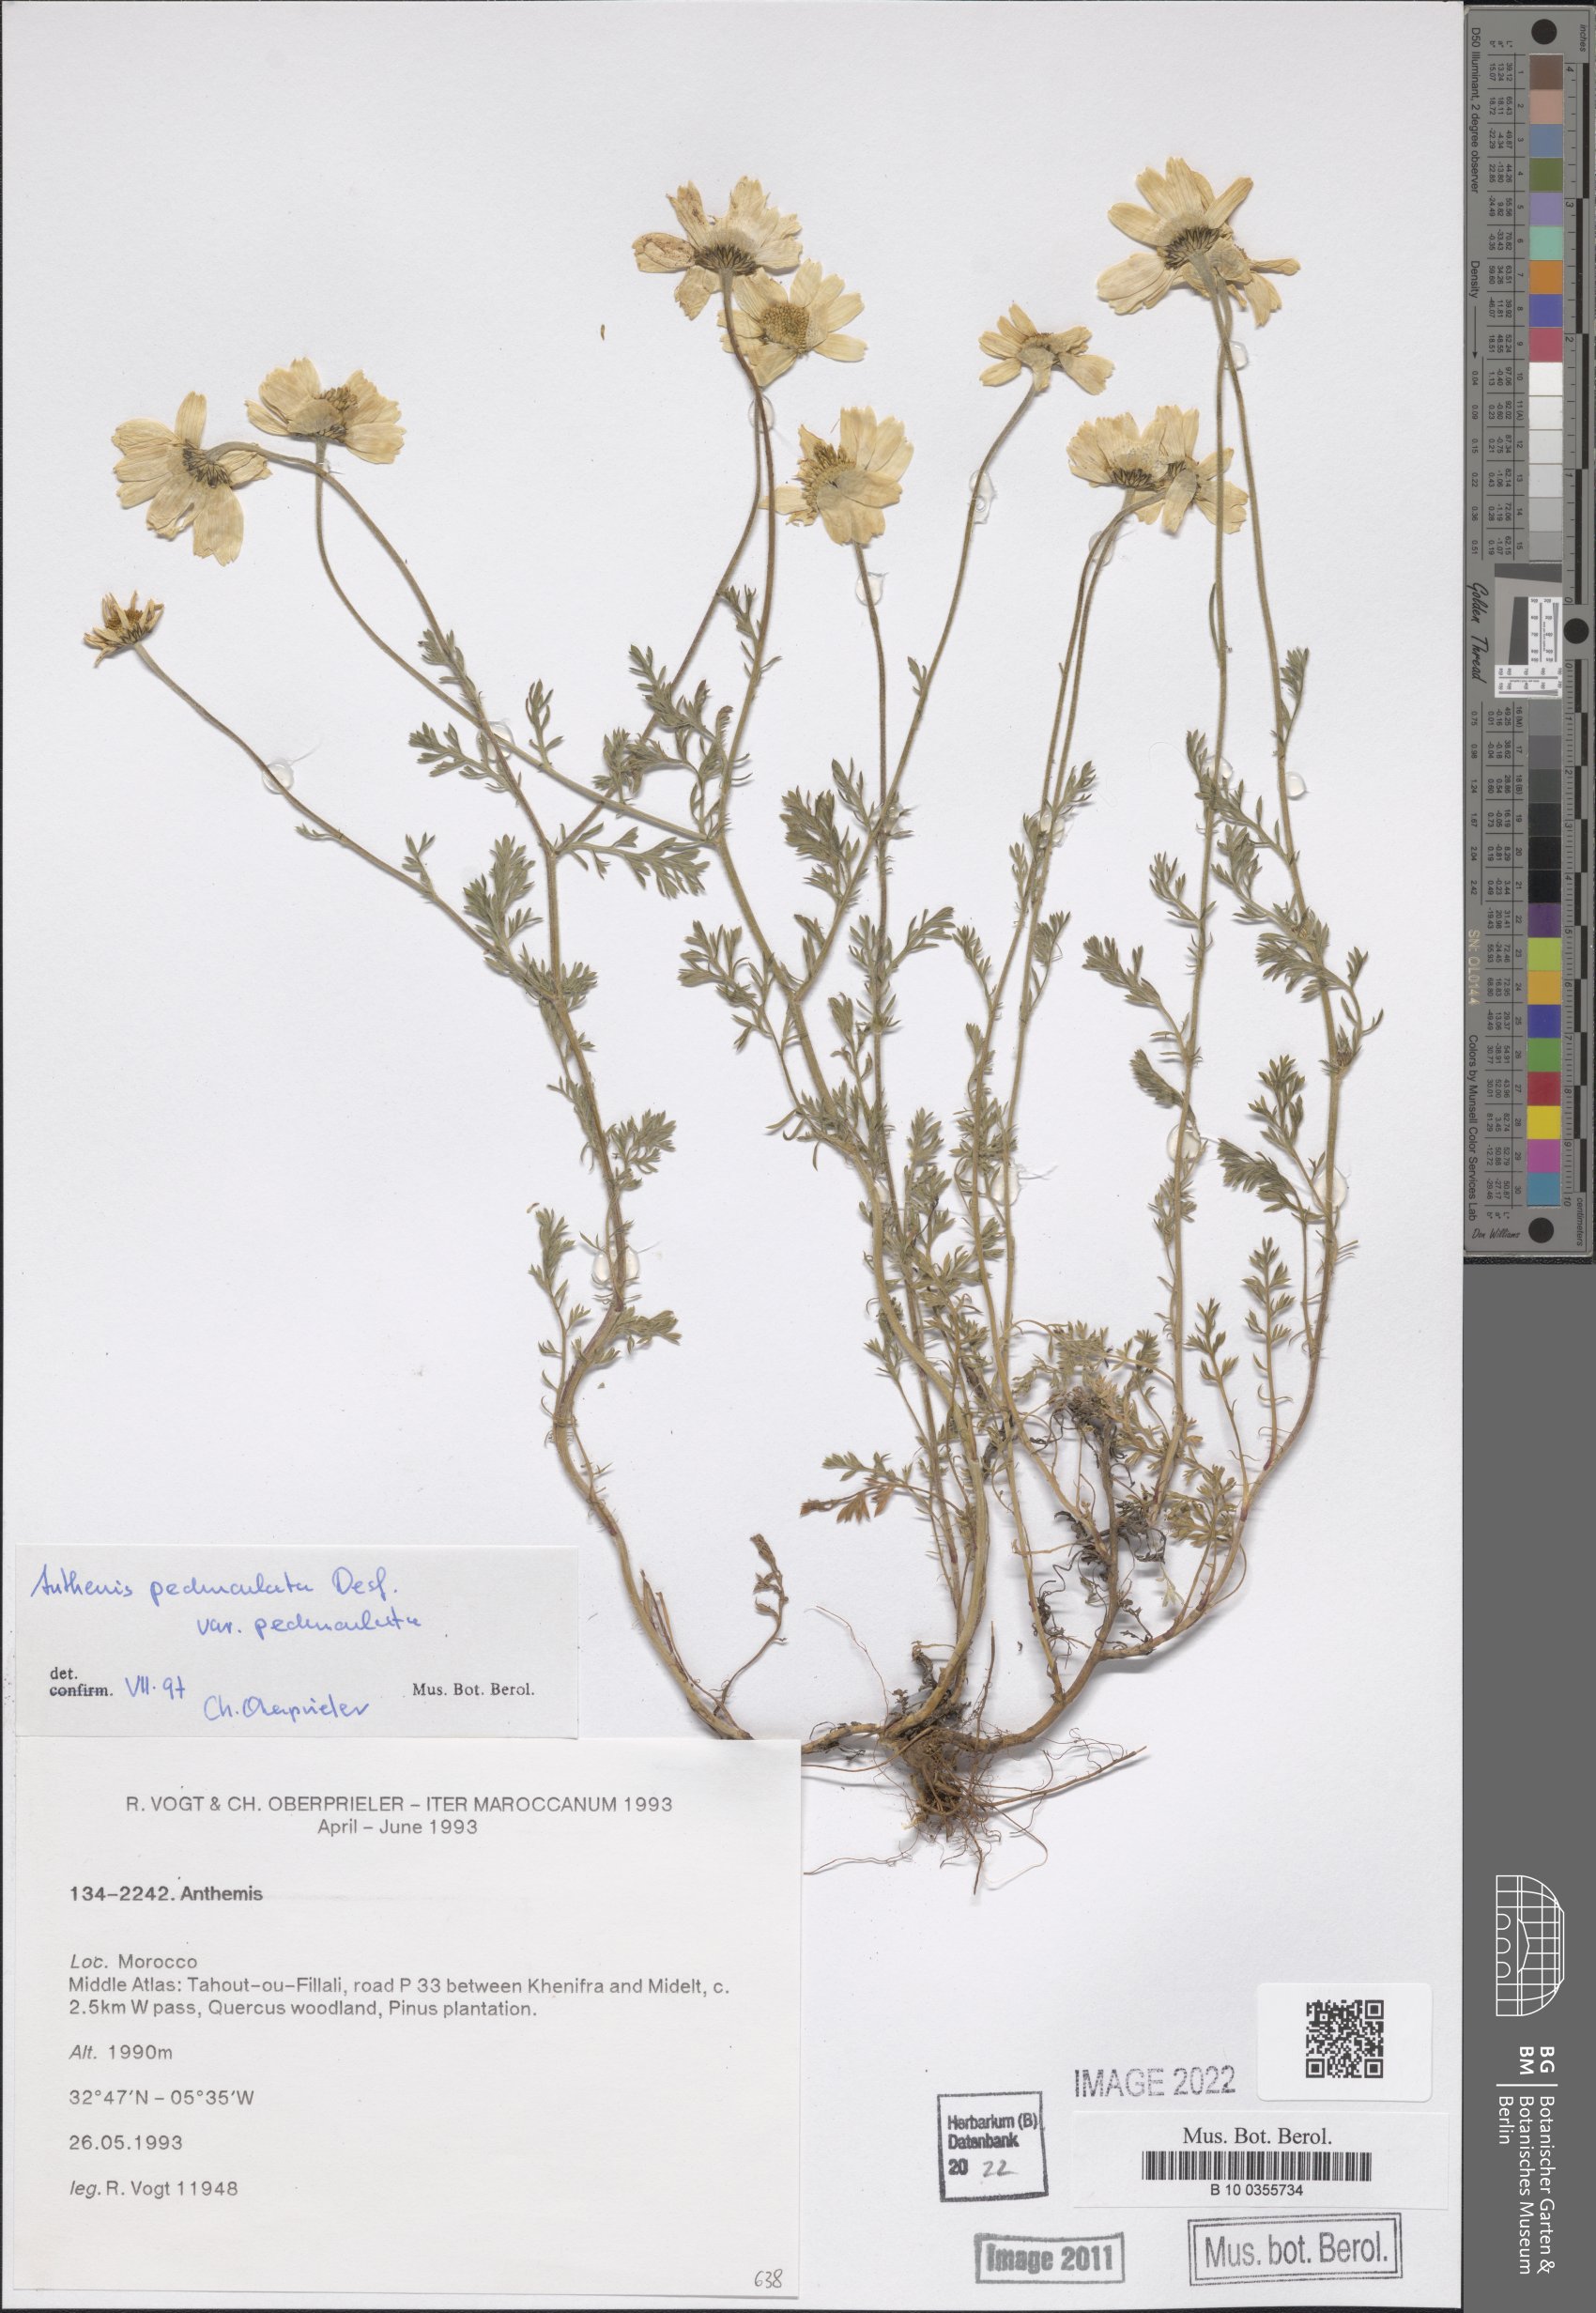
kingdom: Plantae
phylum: Tracheophyta
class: Magnoliopsida
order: Asterales
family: Asteraceae
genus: Anthemis
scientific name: Anthemis pedunculata
